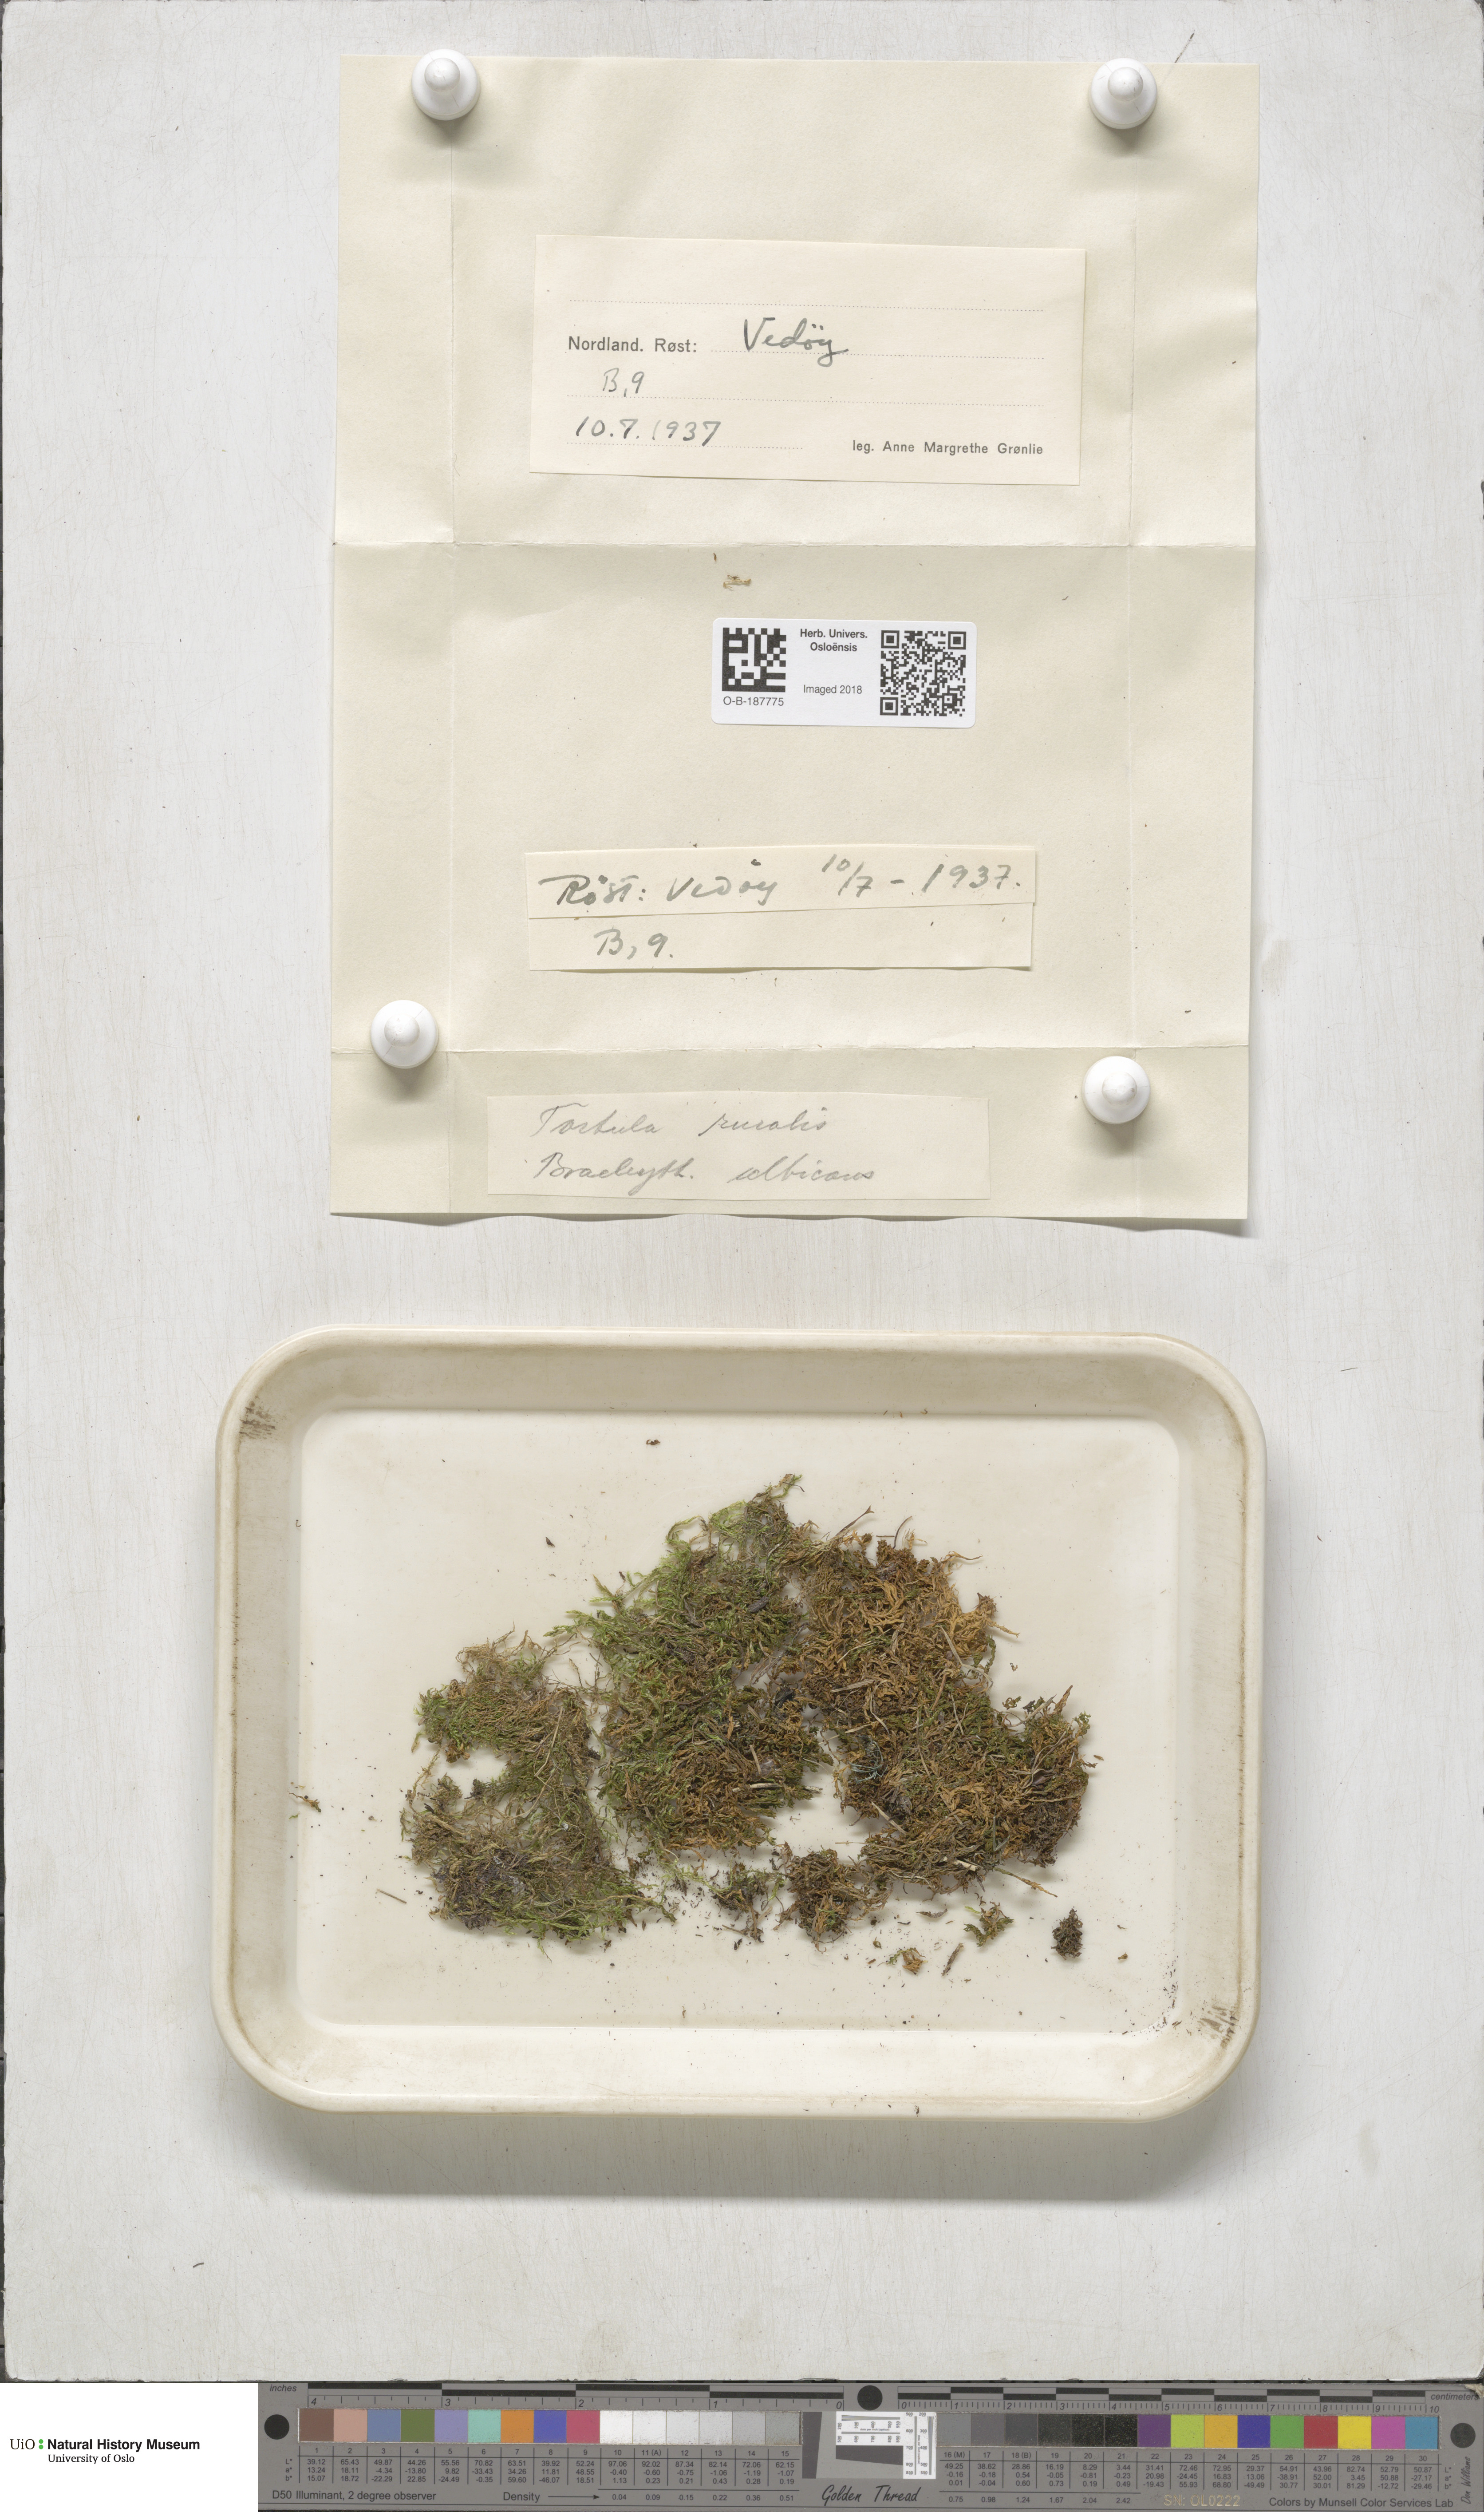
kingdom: Plantae
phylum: Bryophyta
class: Bryopsida
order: Pottiales
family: Pottiaceae
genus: Syntrichia
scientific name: Syntrichia ruralis
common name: Sidewalk screw moss
